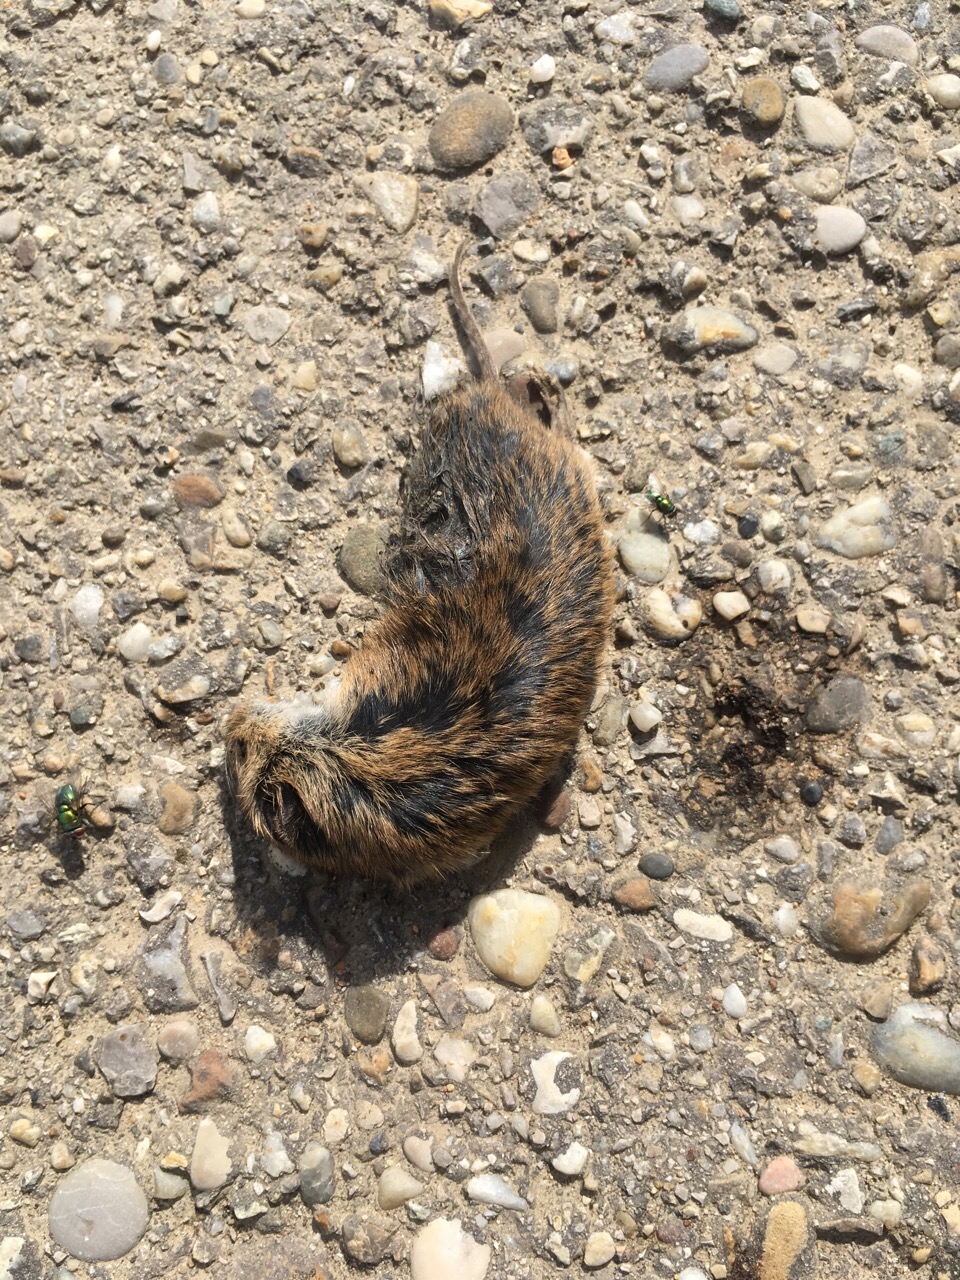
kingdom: Animalia
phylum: Chordata
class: Mammalia
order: Rodentia
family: Cricetidae
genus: Microtus
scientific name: Microtus
